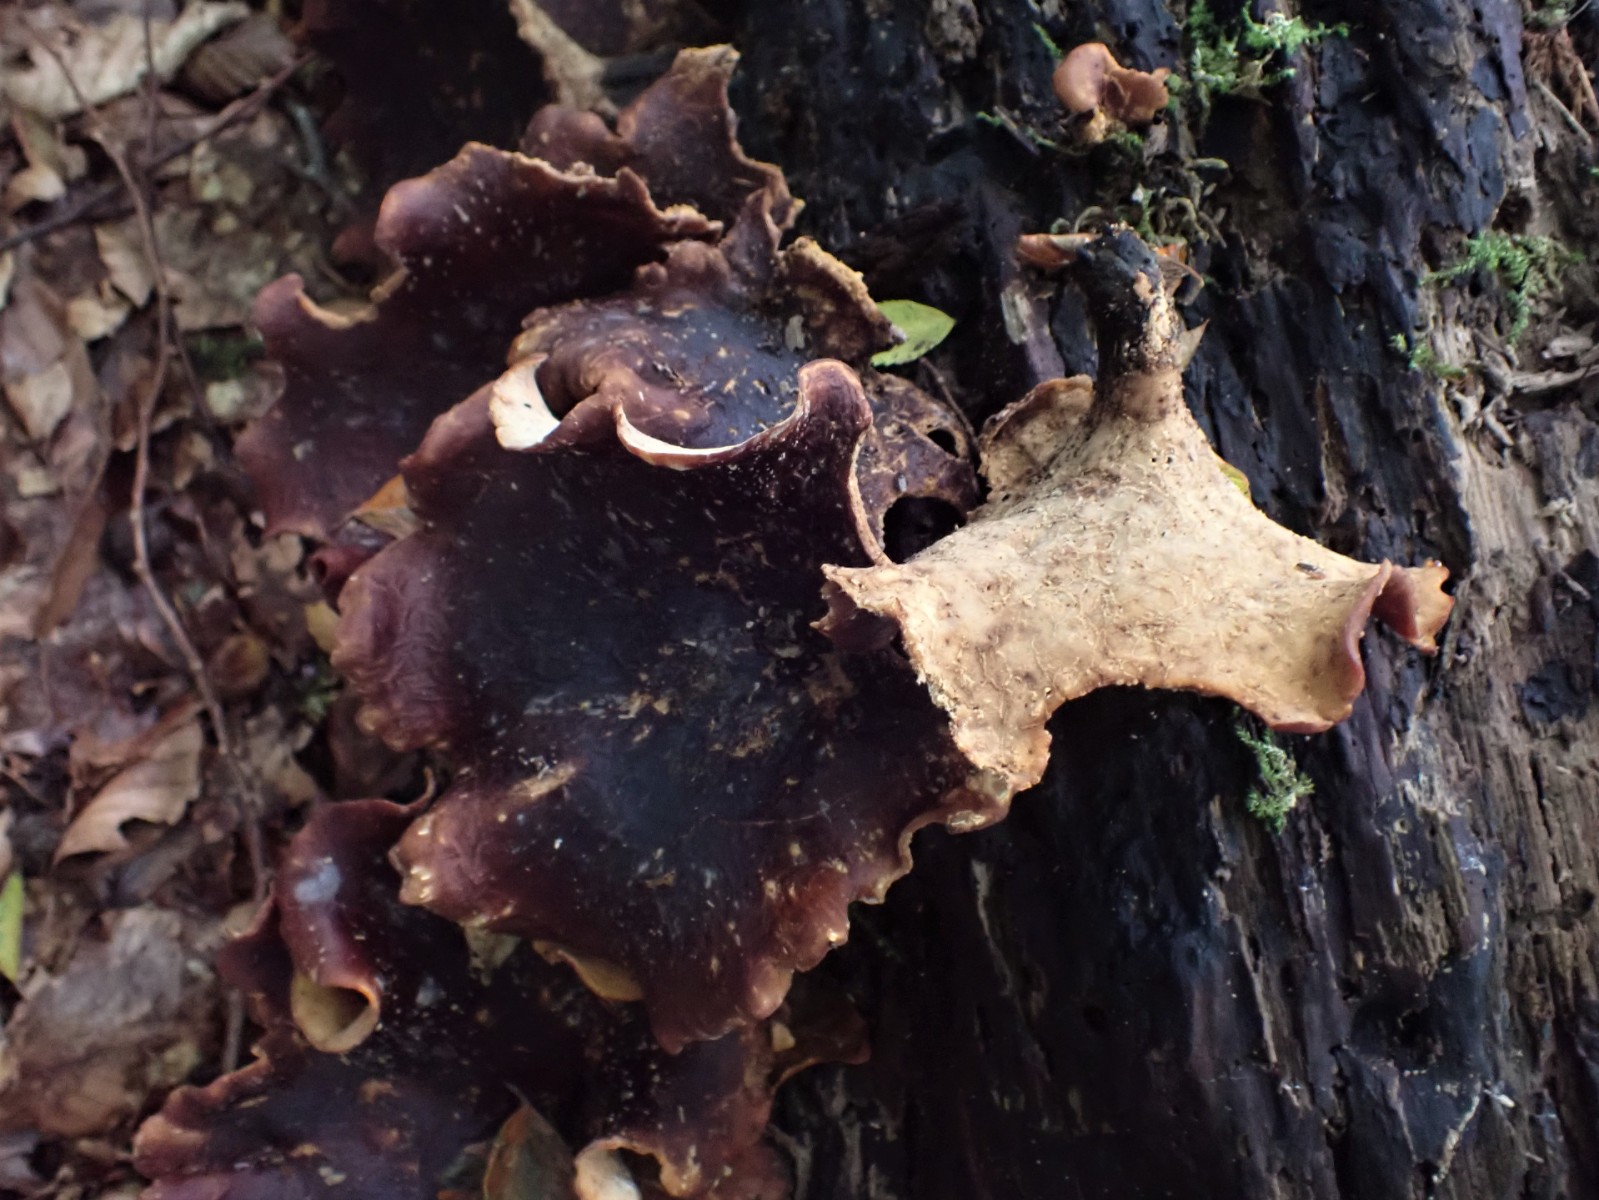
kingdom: Fungi
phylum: Basidiomycota
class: Agaricomycetes
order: Polyporales
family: Polyporaceae
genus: Picipes
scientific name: Picipes badius
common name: kastaniebrun stilkporesvamp
